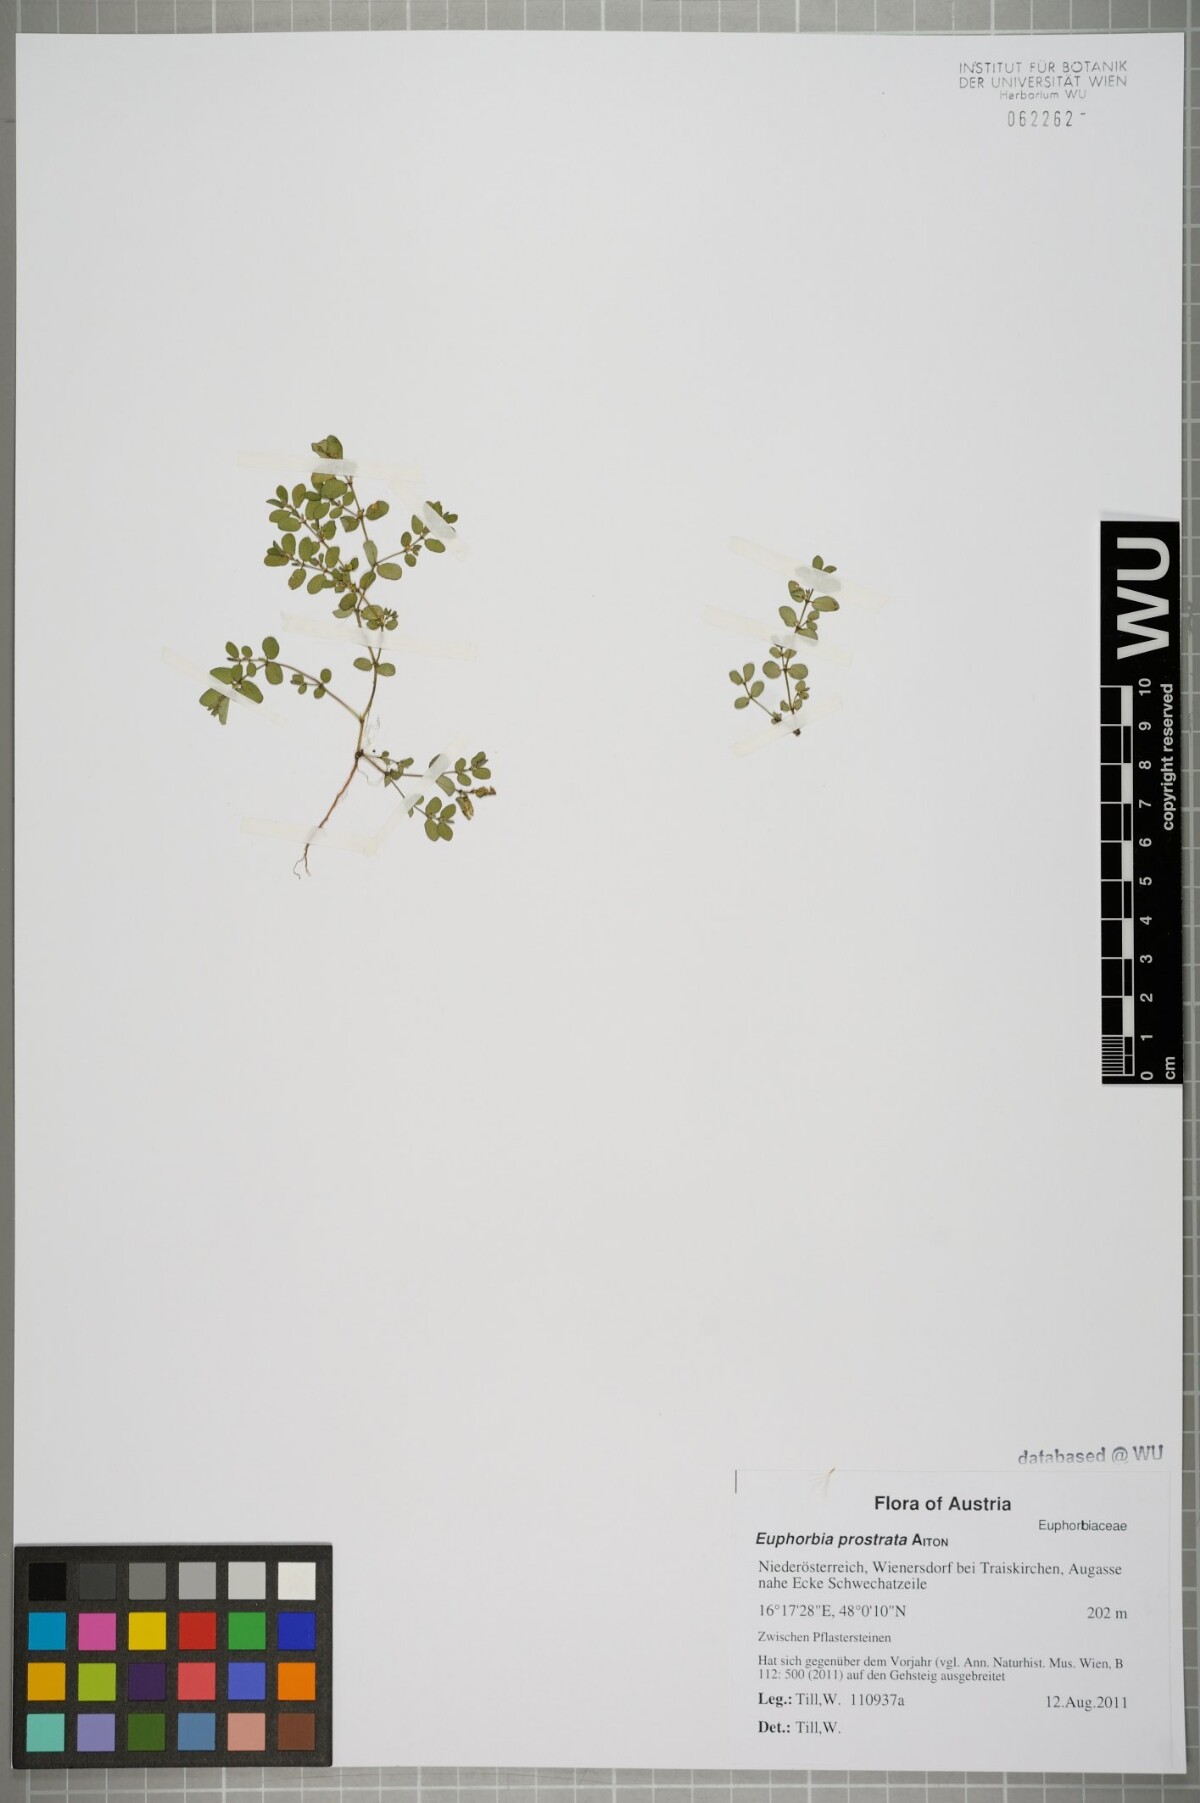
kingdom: Plantae
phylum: Tracheophyta
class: Magnoliopsida
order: Malpighiales
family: Euphorbiaceae
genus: Euphorbia
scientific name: Euphorbia prostrata
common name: Prostrate sandmat
